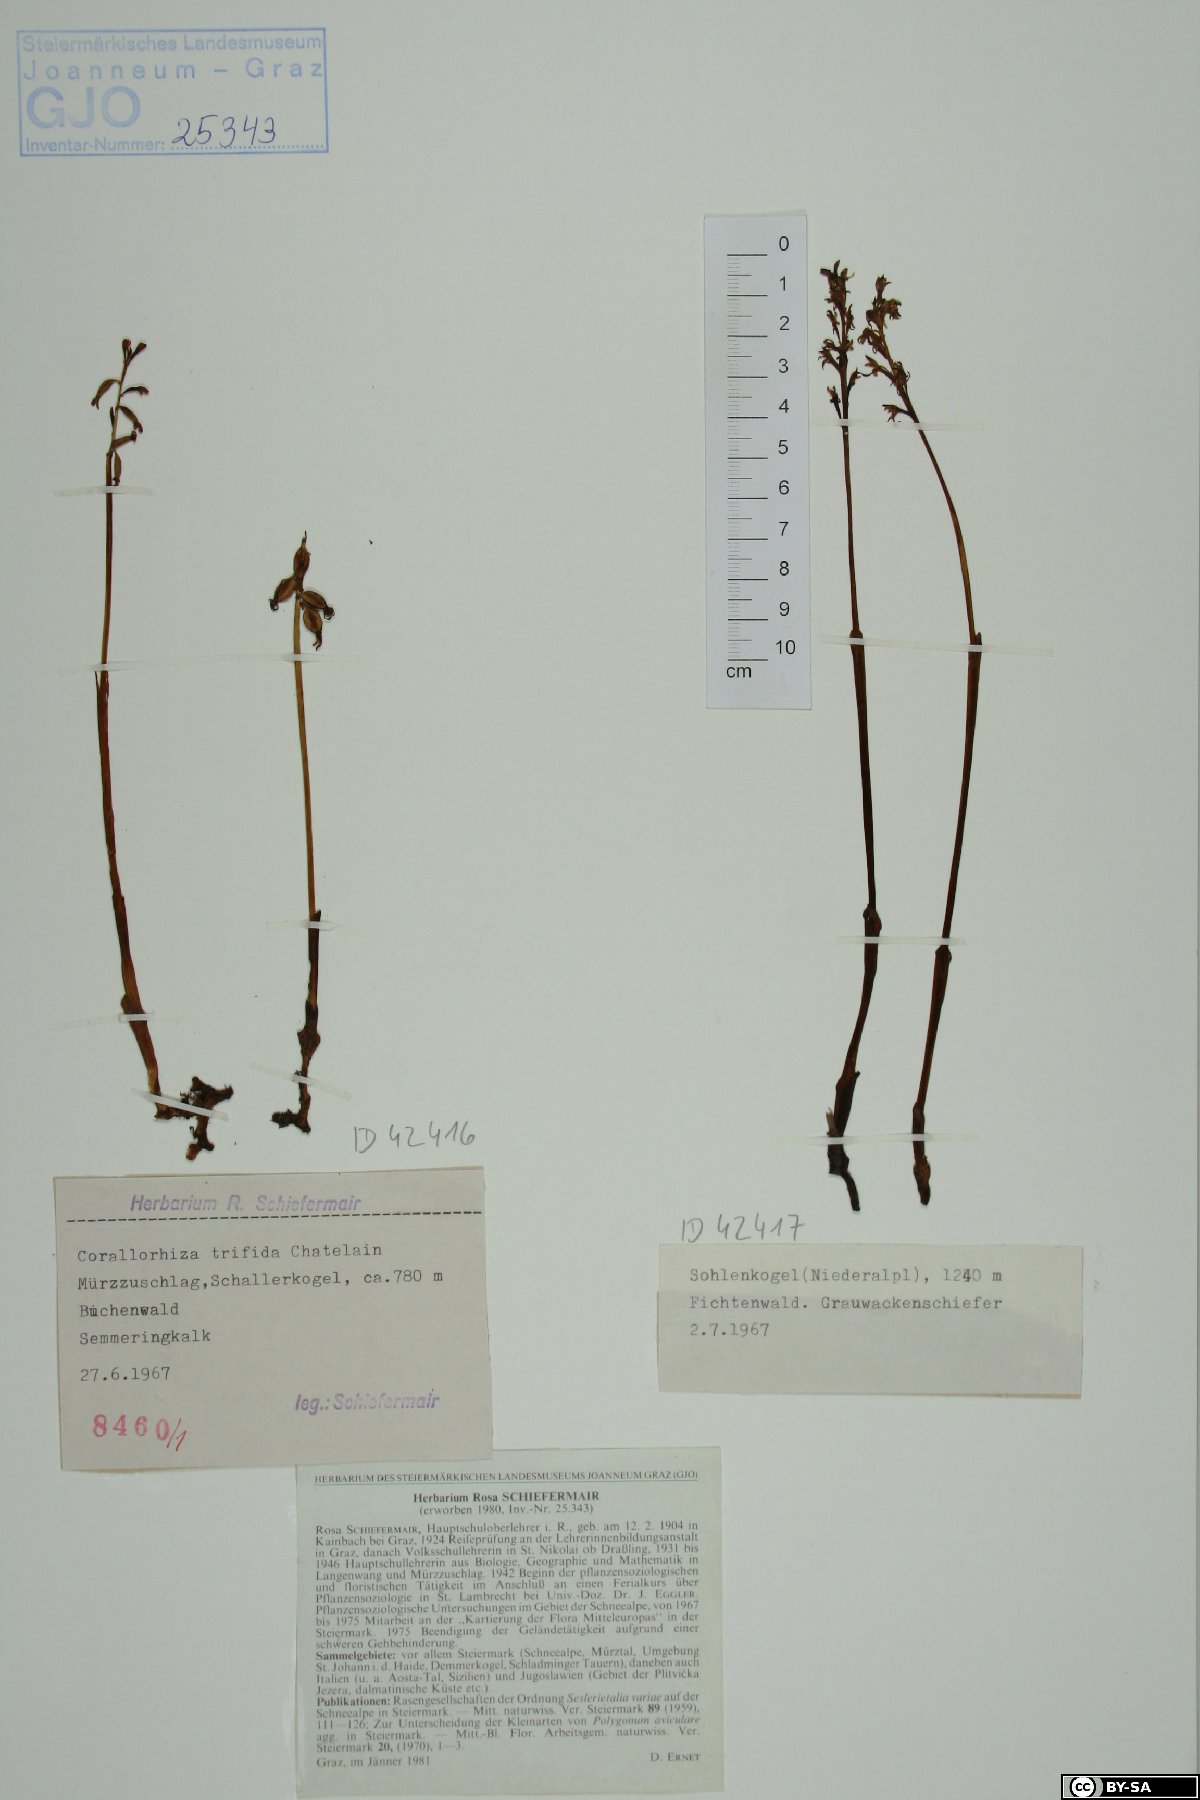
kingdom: Plantae
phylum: Tracheophyta
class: Liliopsida
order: Asparagales
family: Orchidaceae
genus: Corallorhiza
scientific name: Corallorhiza trifida
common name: Yellow coralroot
